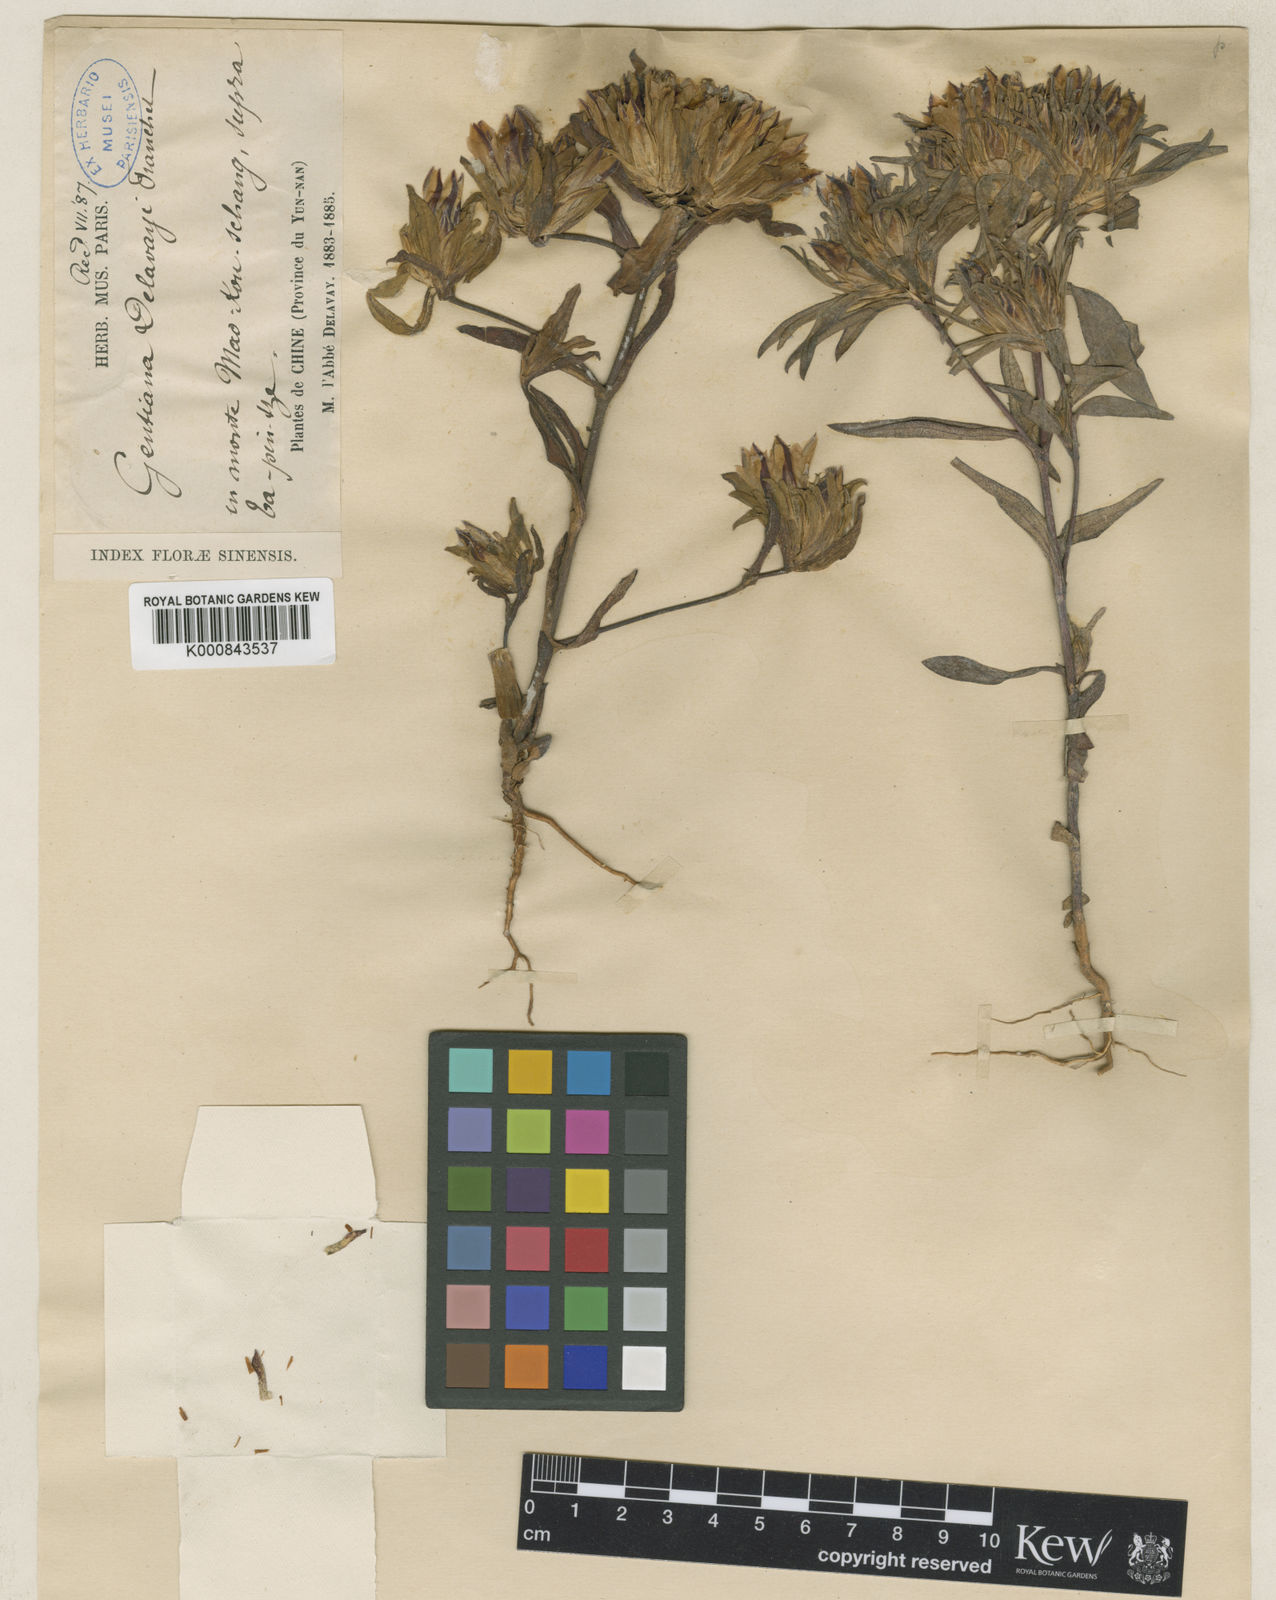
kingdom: Plantae
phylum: Tracheophyta
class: Magnoliopsida
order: Gentianales
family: Gentianaceae
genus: Gentiana
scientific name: Gentiana delavayi
